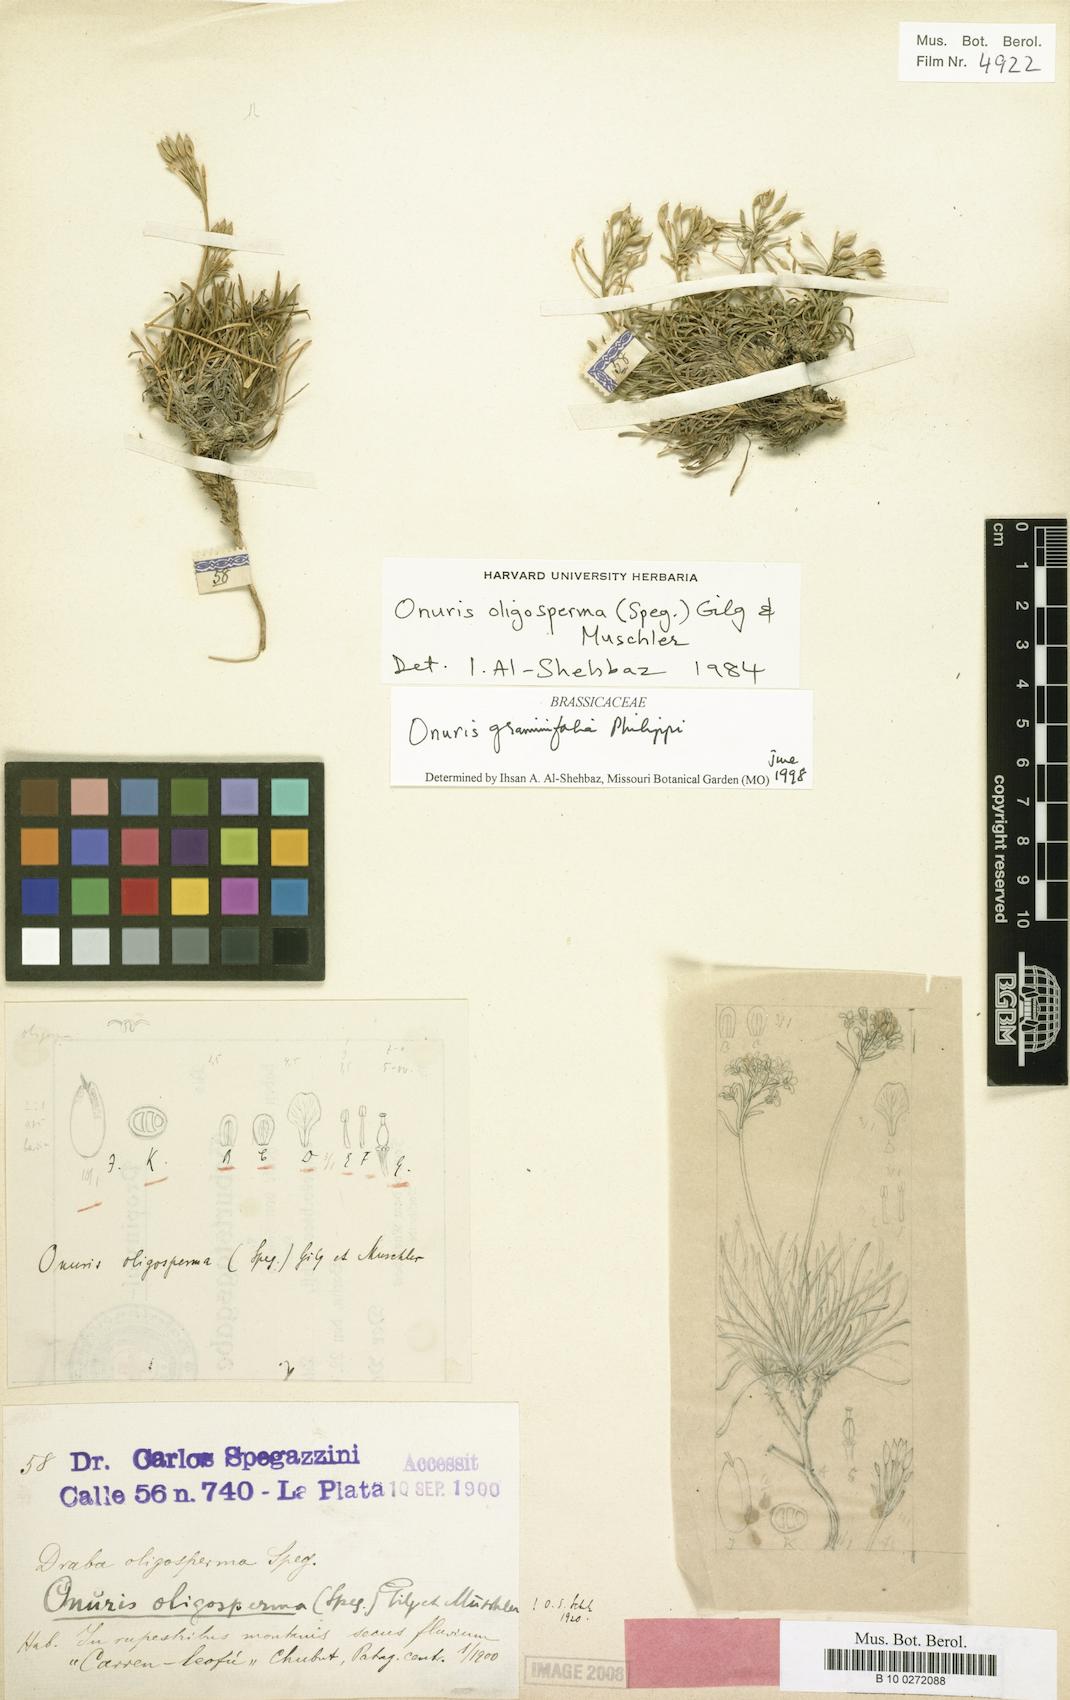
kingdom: Plantae
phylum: Tracheophyta
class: Magnoliopsida
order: Brassicales
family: Brassicaceae
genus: Onuris
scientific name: Onuris graminifolia
